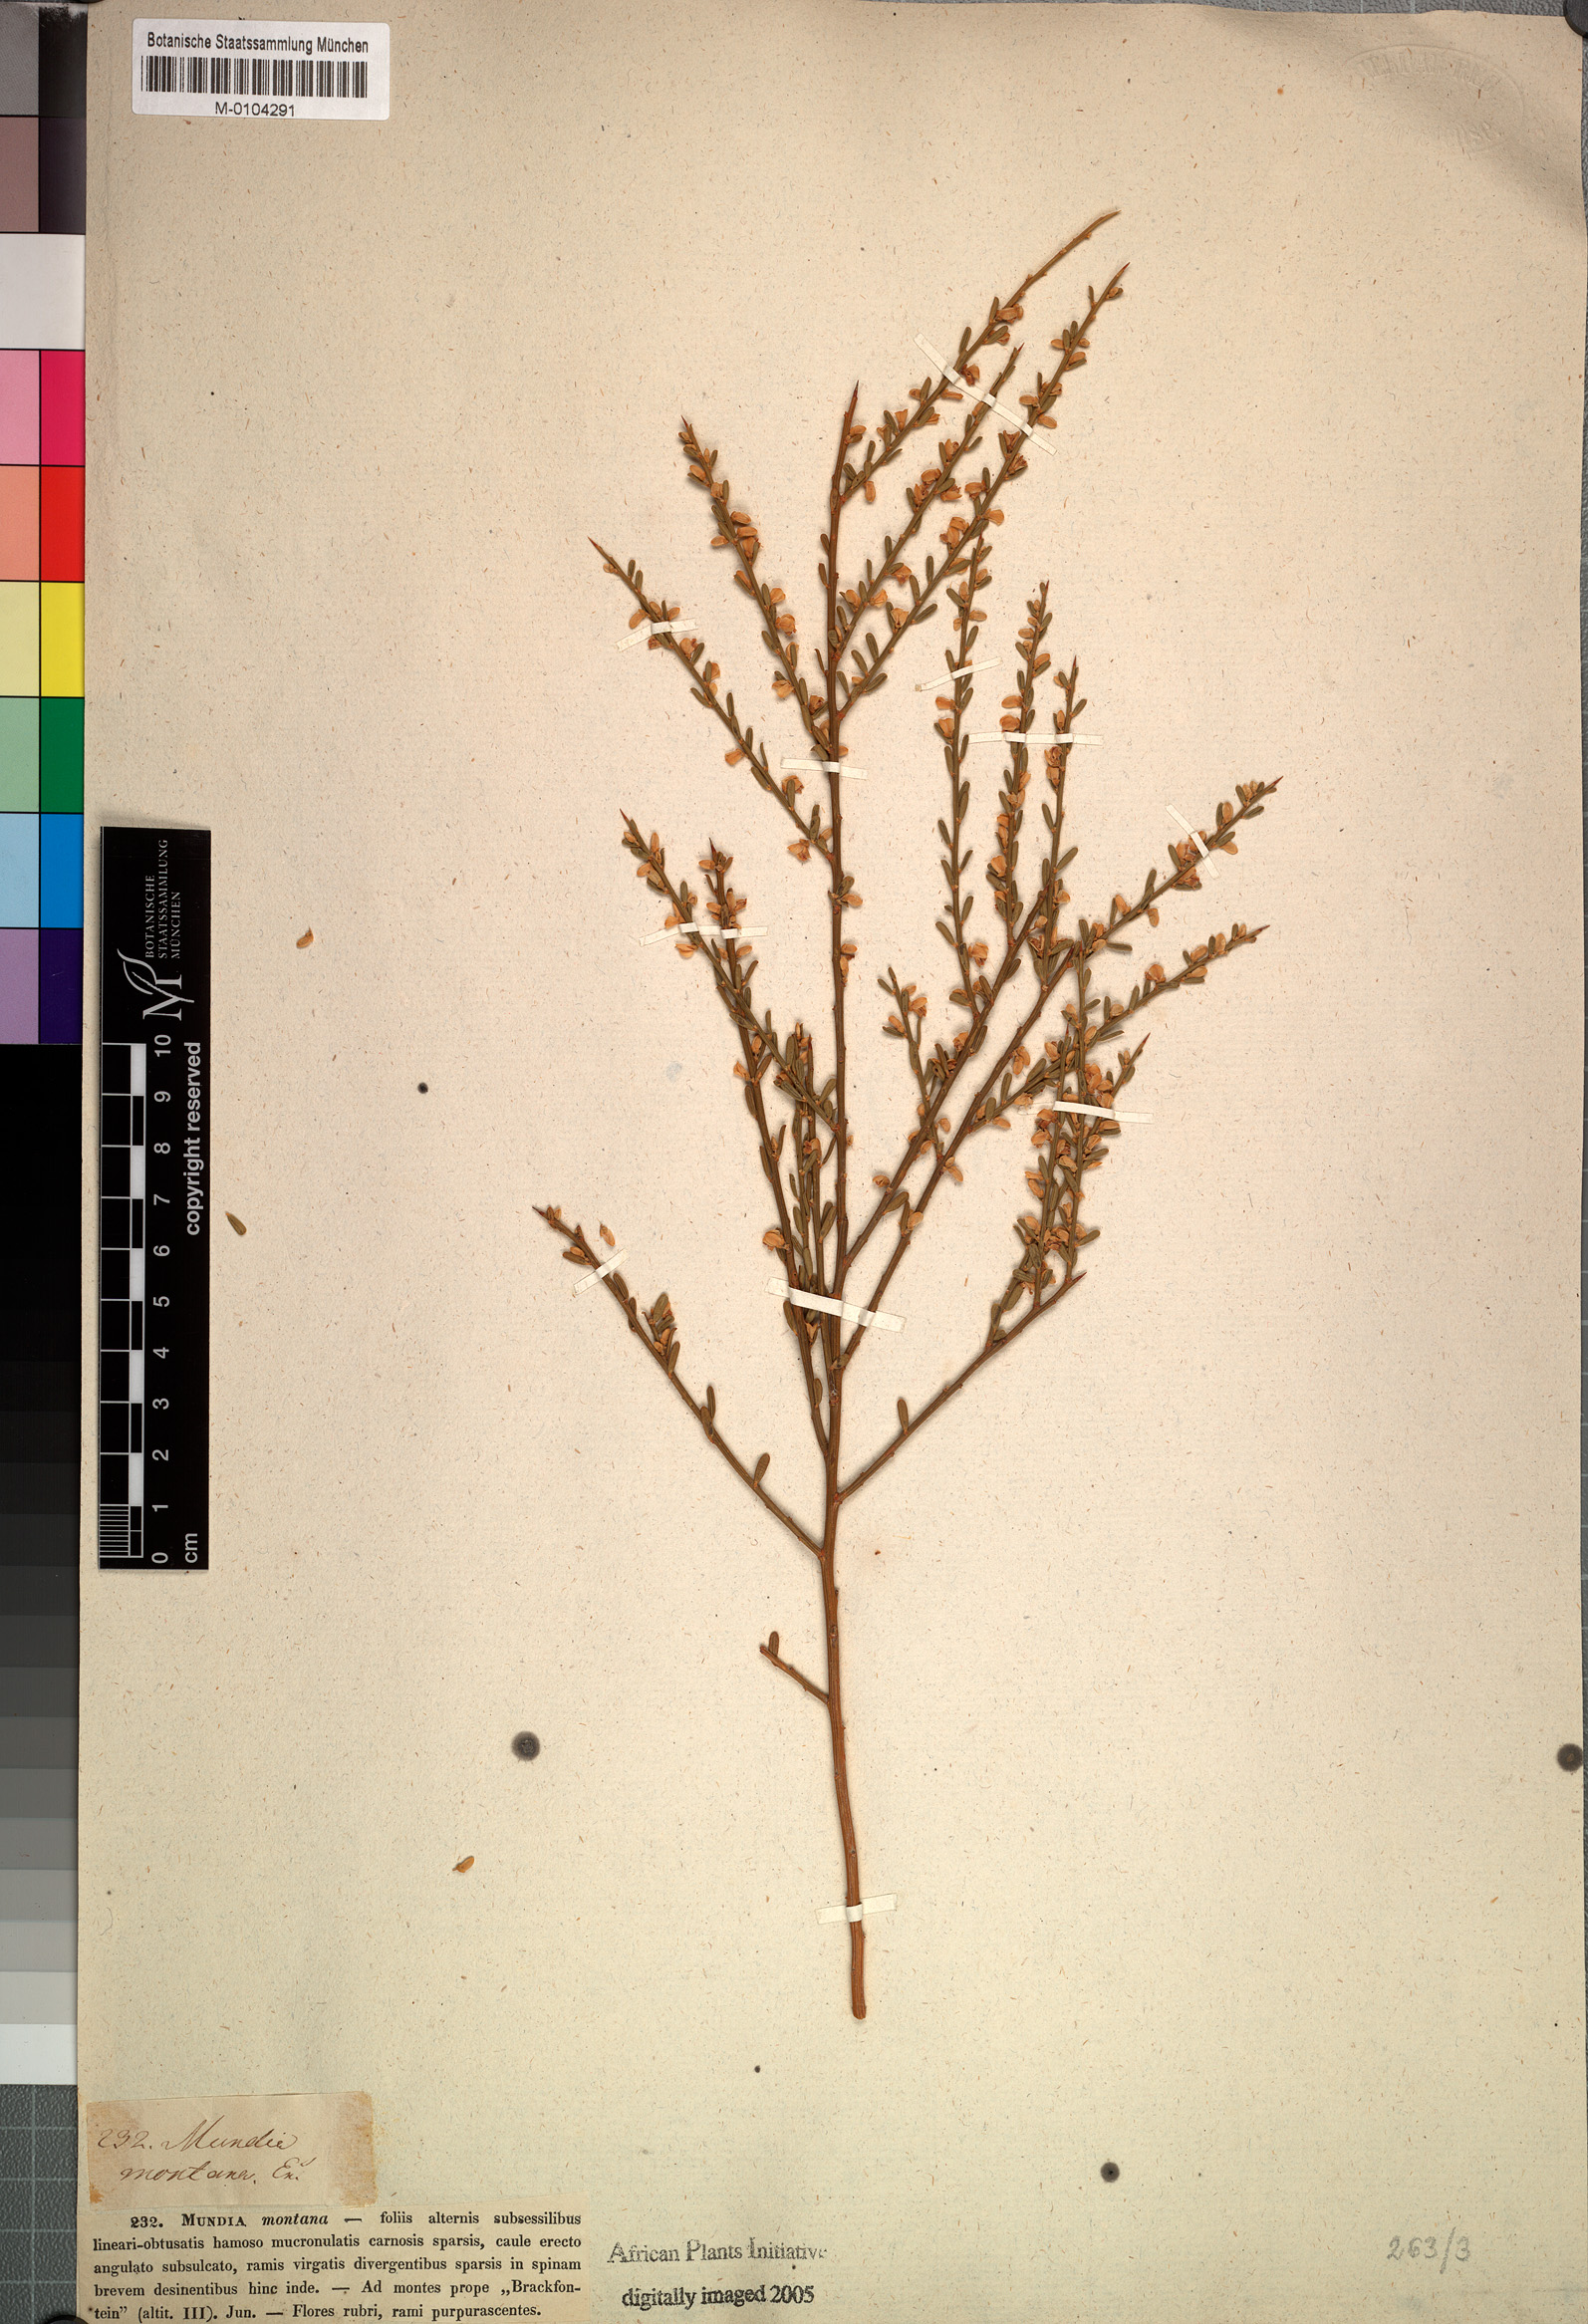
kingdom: Plantae
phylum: Tracheophyta
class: Magnoliopsida
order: Fabales
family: Polygalaceae
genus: Muraltia
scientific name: Muraltia spinosa
